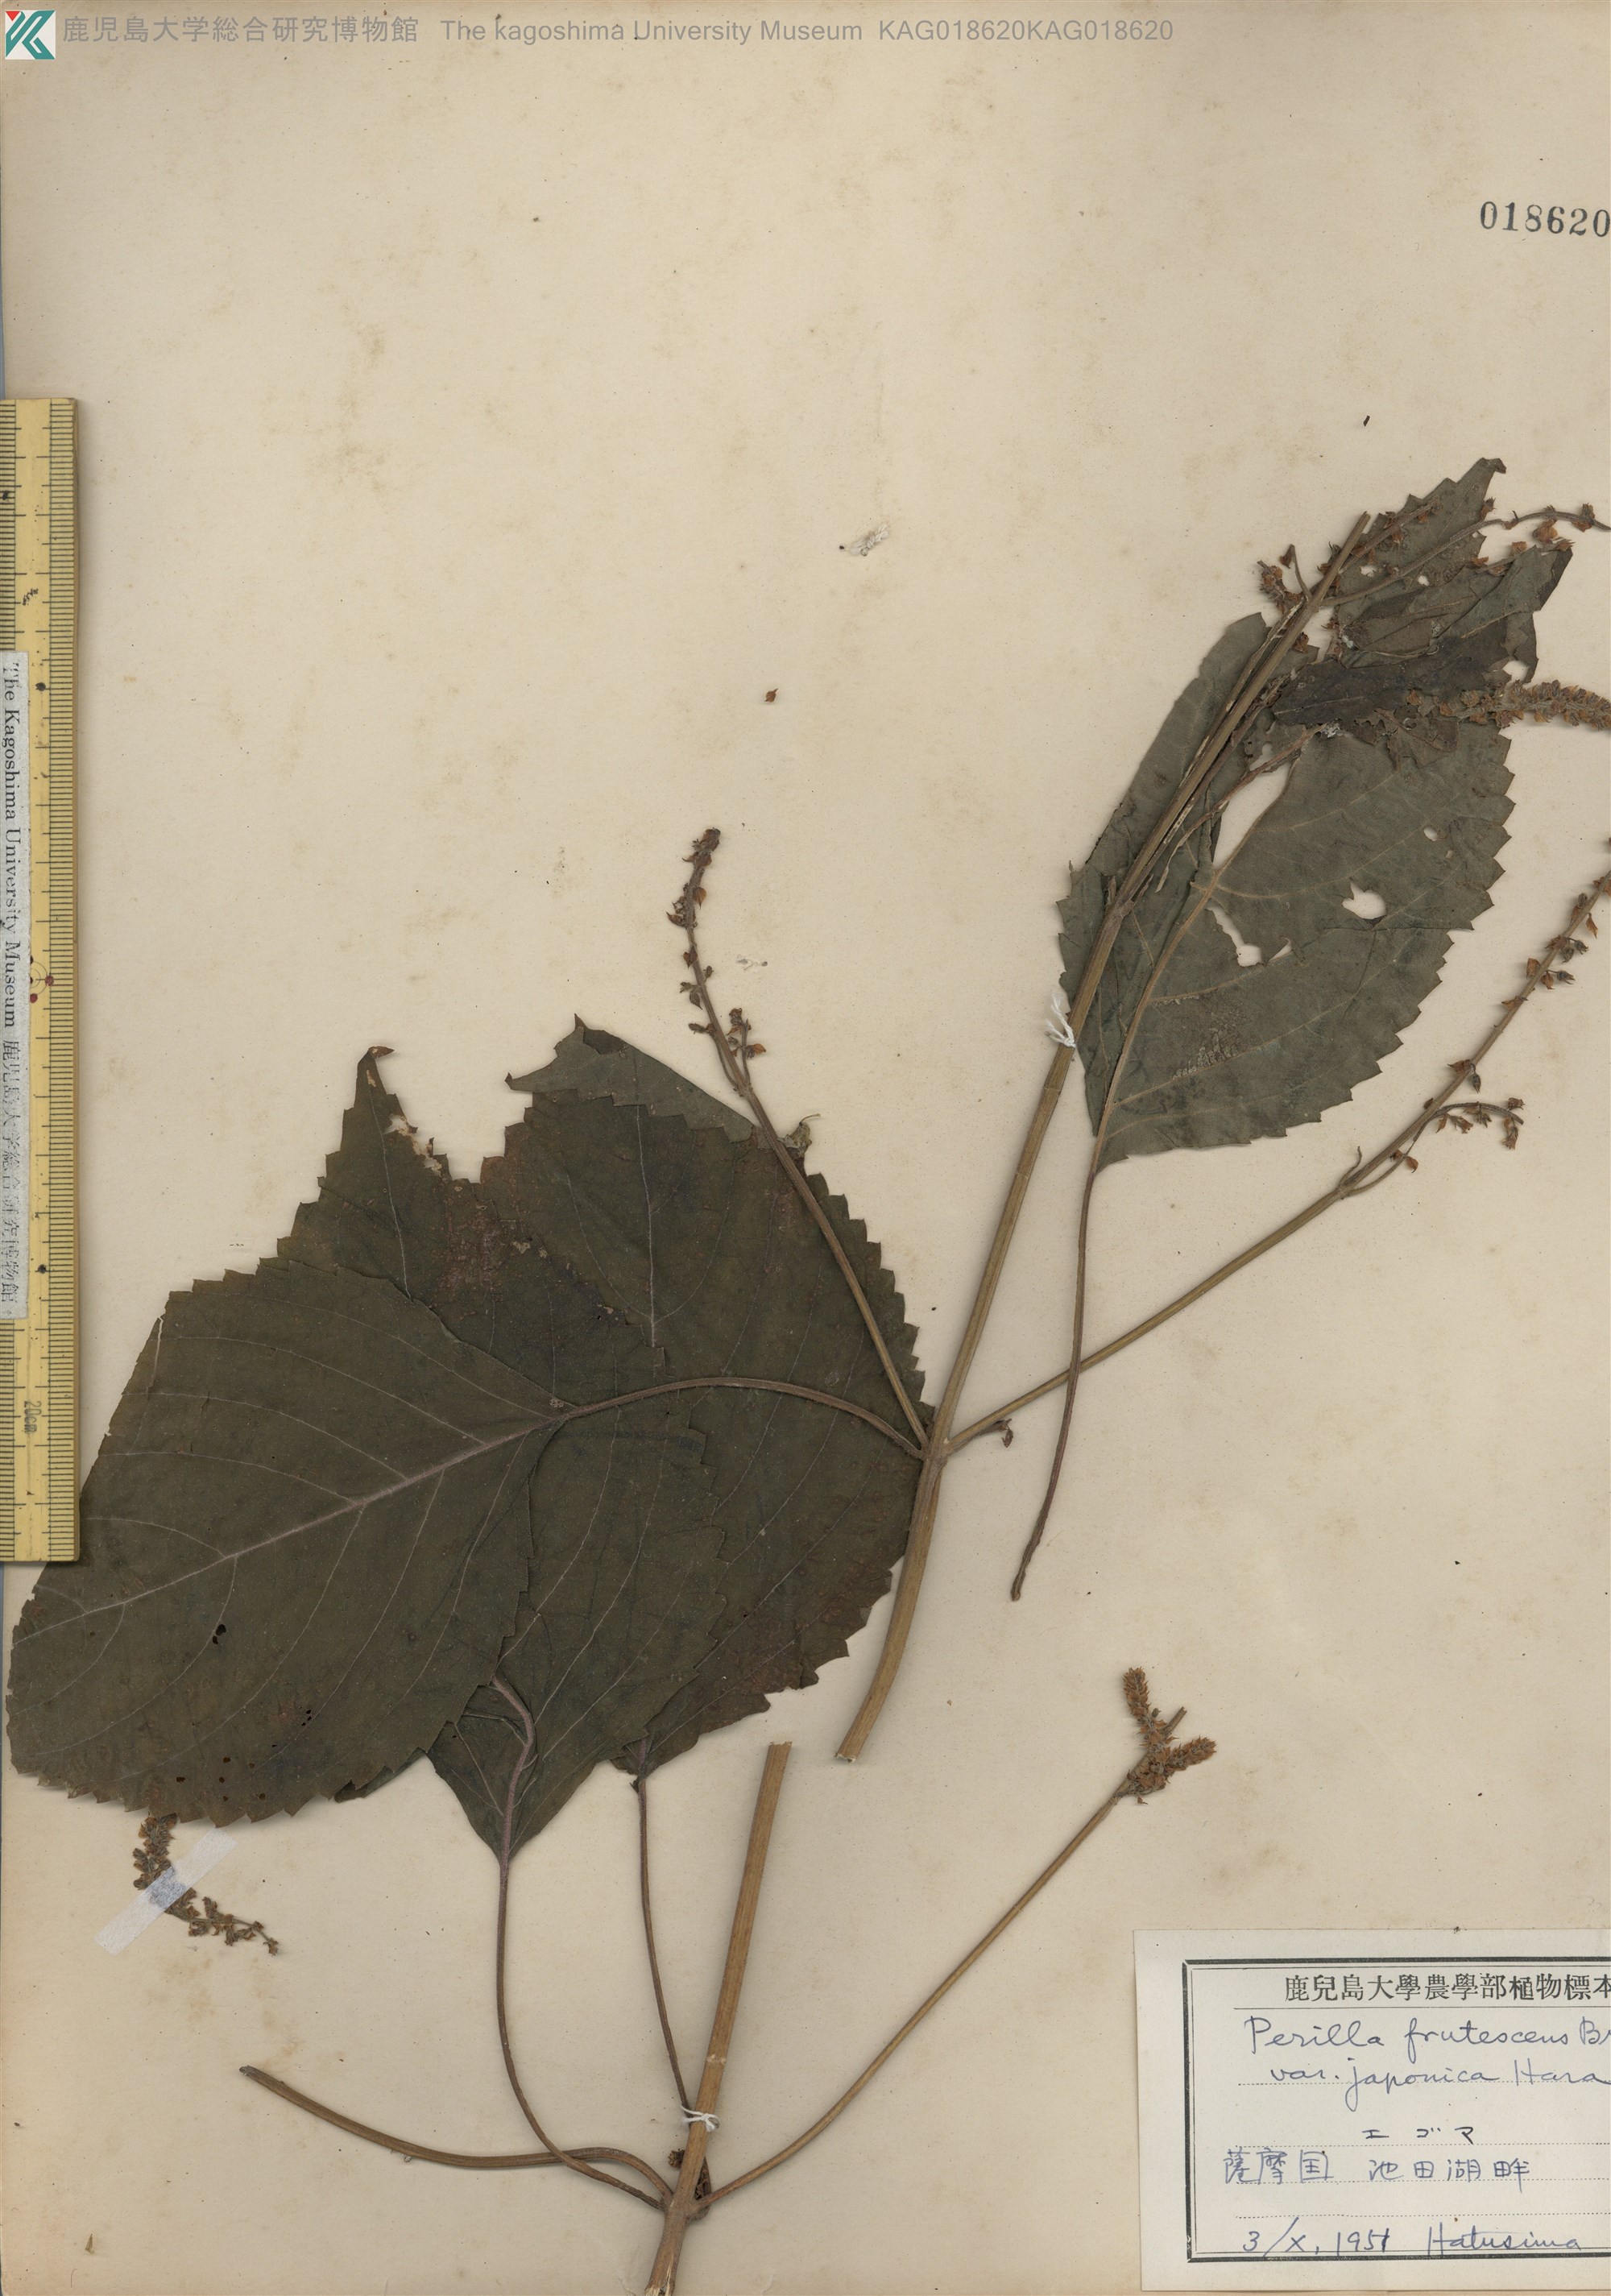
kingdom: Plantae
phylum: Tracheophyta
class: Magnoliopsida
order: Lamiales
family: Lamiaceae
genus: Perilla
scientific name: Perilla frutescens
